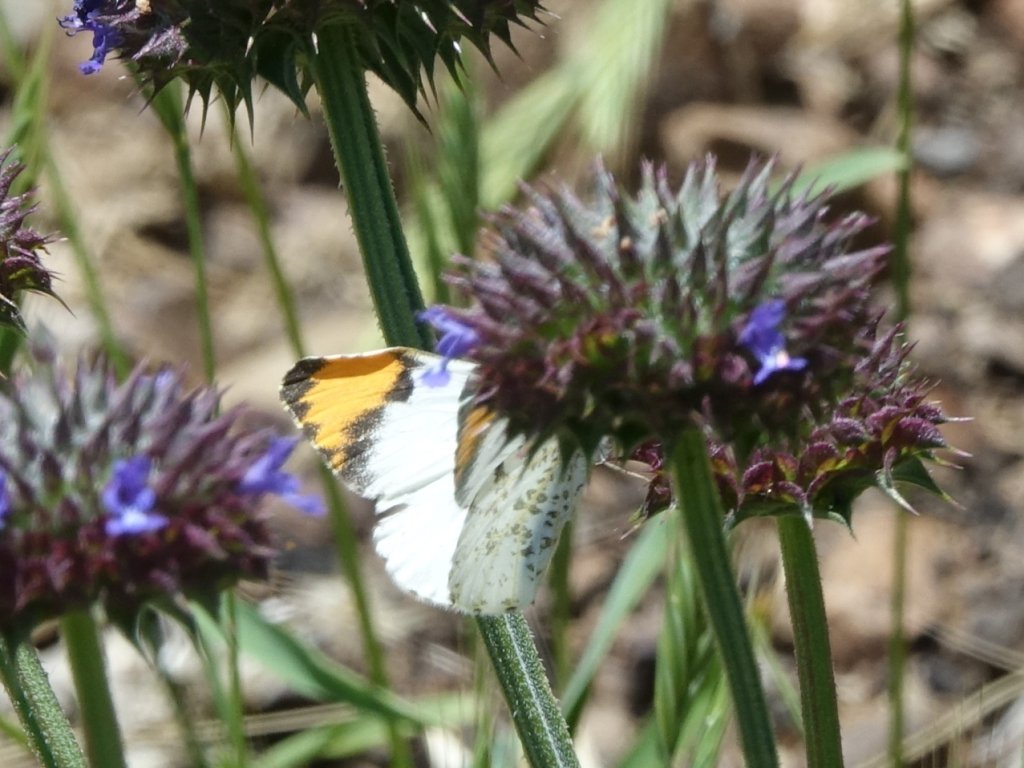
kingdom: Animalia
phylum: Arthropoda
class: Insecta
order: Lepidoptera
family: Pieridae
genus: Anthocharis
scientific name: Anthocharis sara
